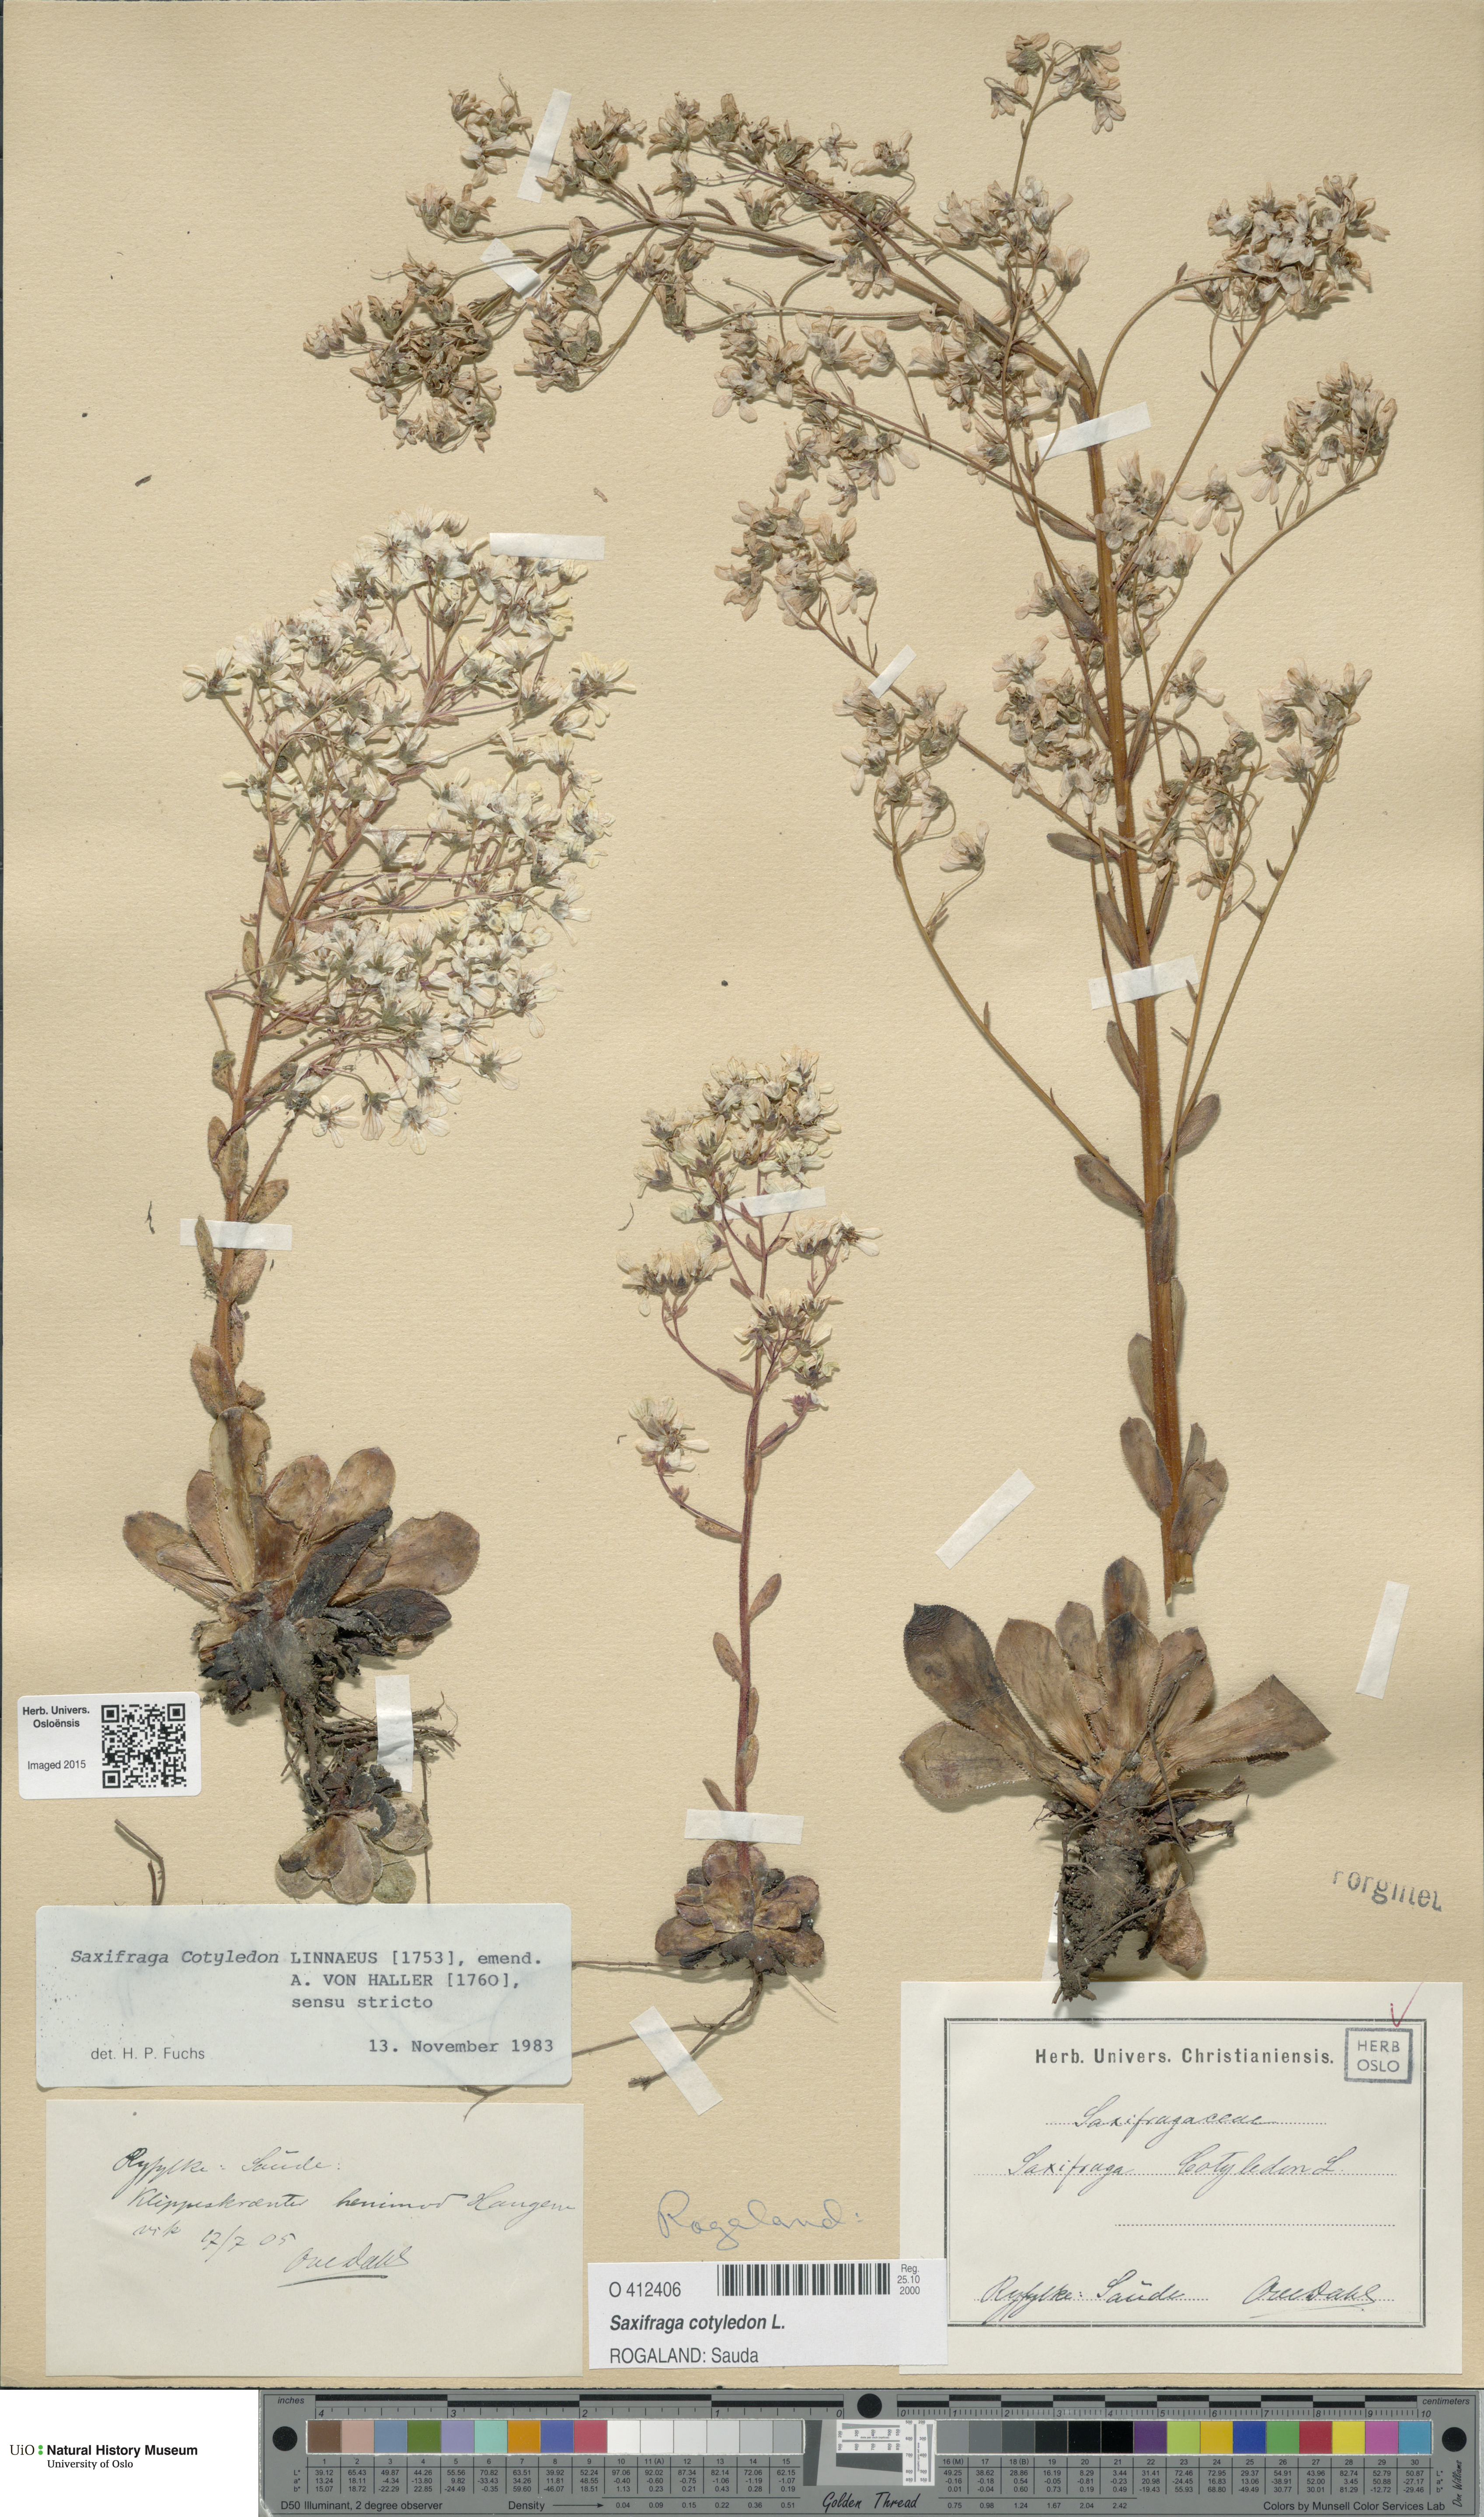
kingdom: Plantae
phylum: Tracheophyta
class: Magnoliopsida
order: Saxifragales
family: Saxifragaceae
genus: Saxifraga
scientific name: Saxifraga cotyledon
